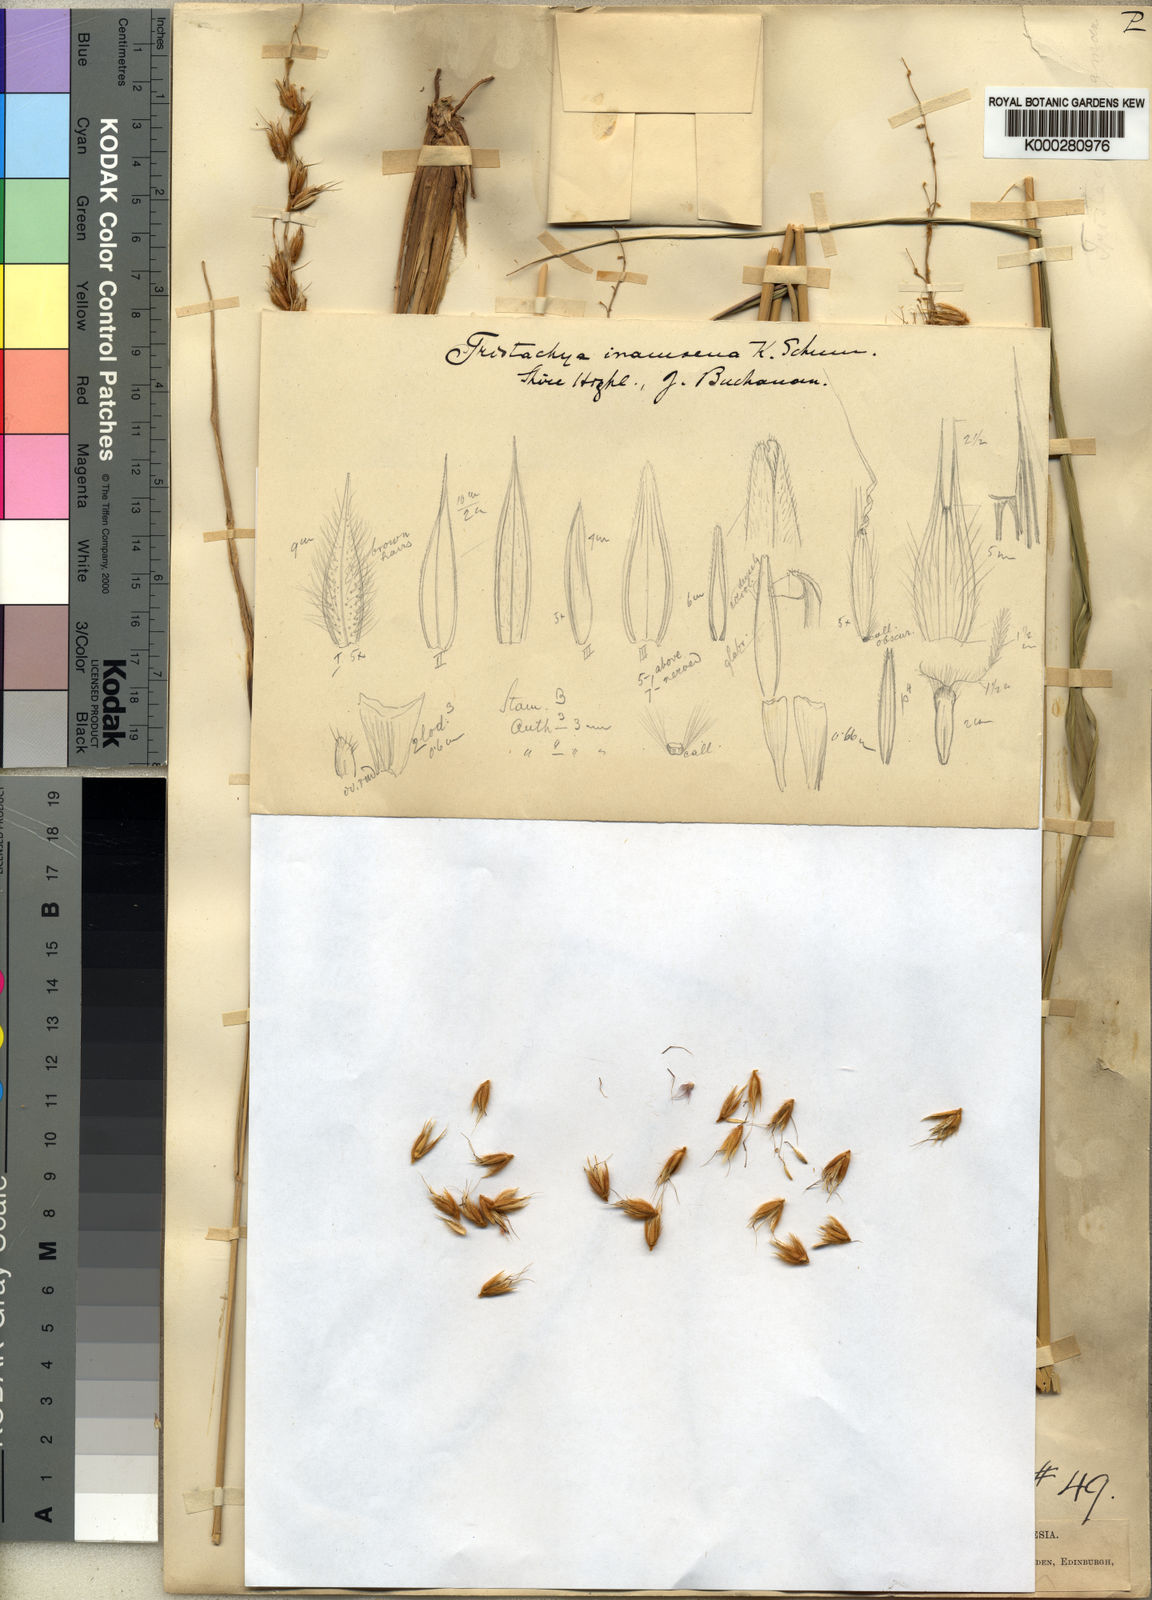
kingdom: Plantae
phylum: Tracheophyta
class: Liliopsida
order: Poales
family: Poaceae
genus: Zonotriche
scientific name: Zonotriche inamoena
